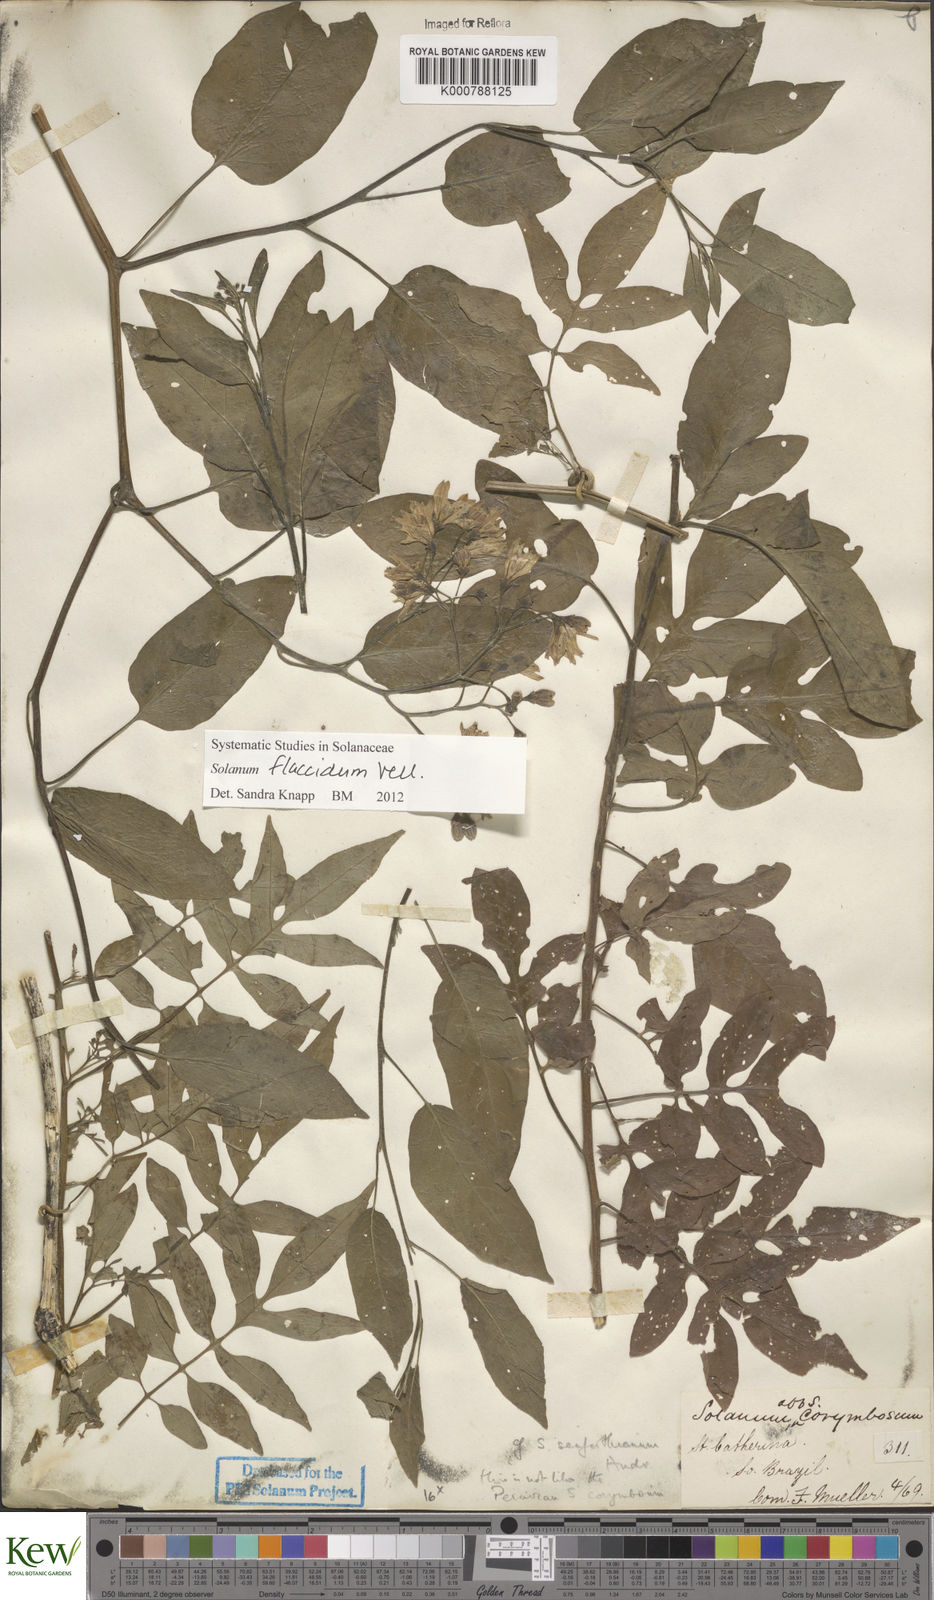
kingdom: Plantae
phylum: Tracheophyta
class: Magnoliopsida
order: Solanales
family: Solanaceae
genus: Solanum
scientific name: Solanum flaccidum
